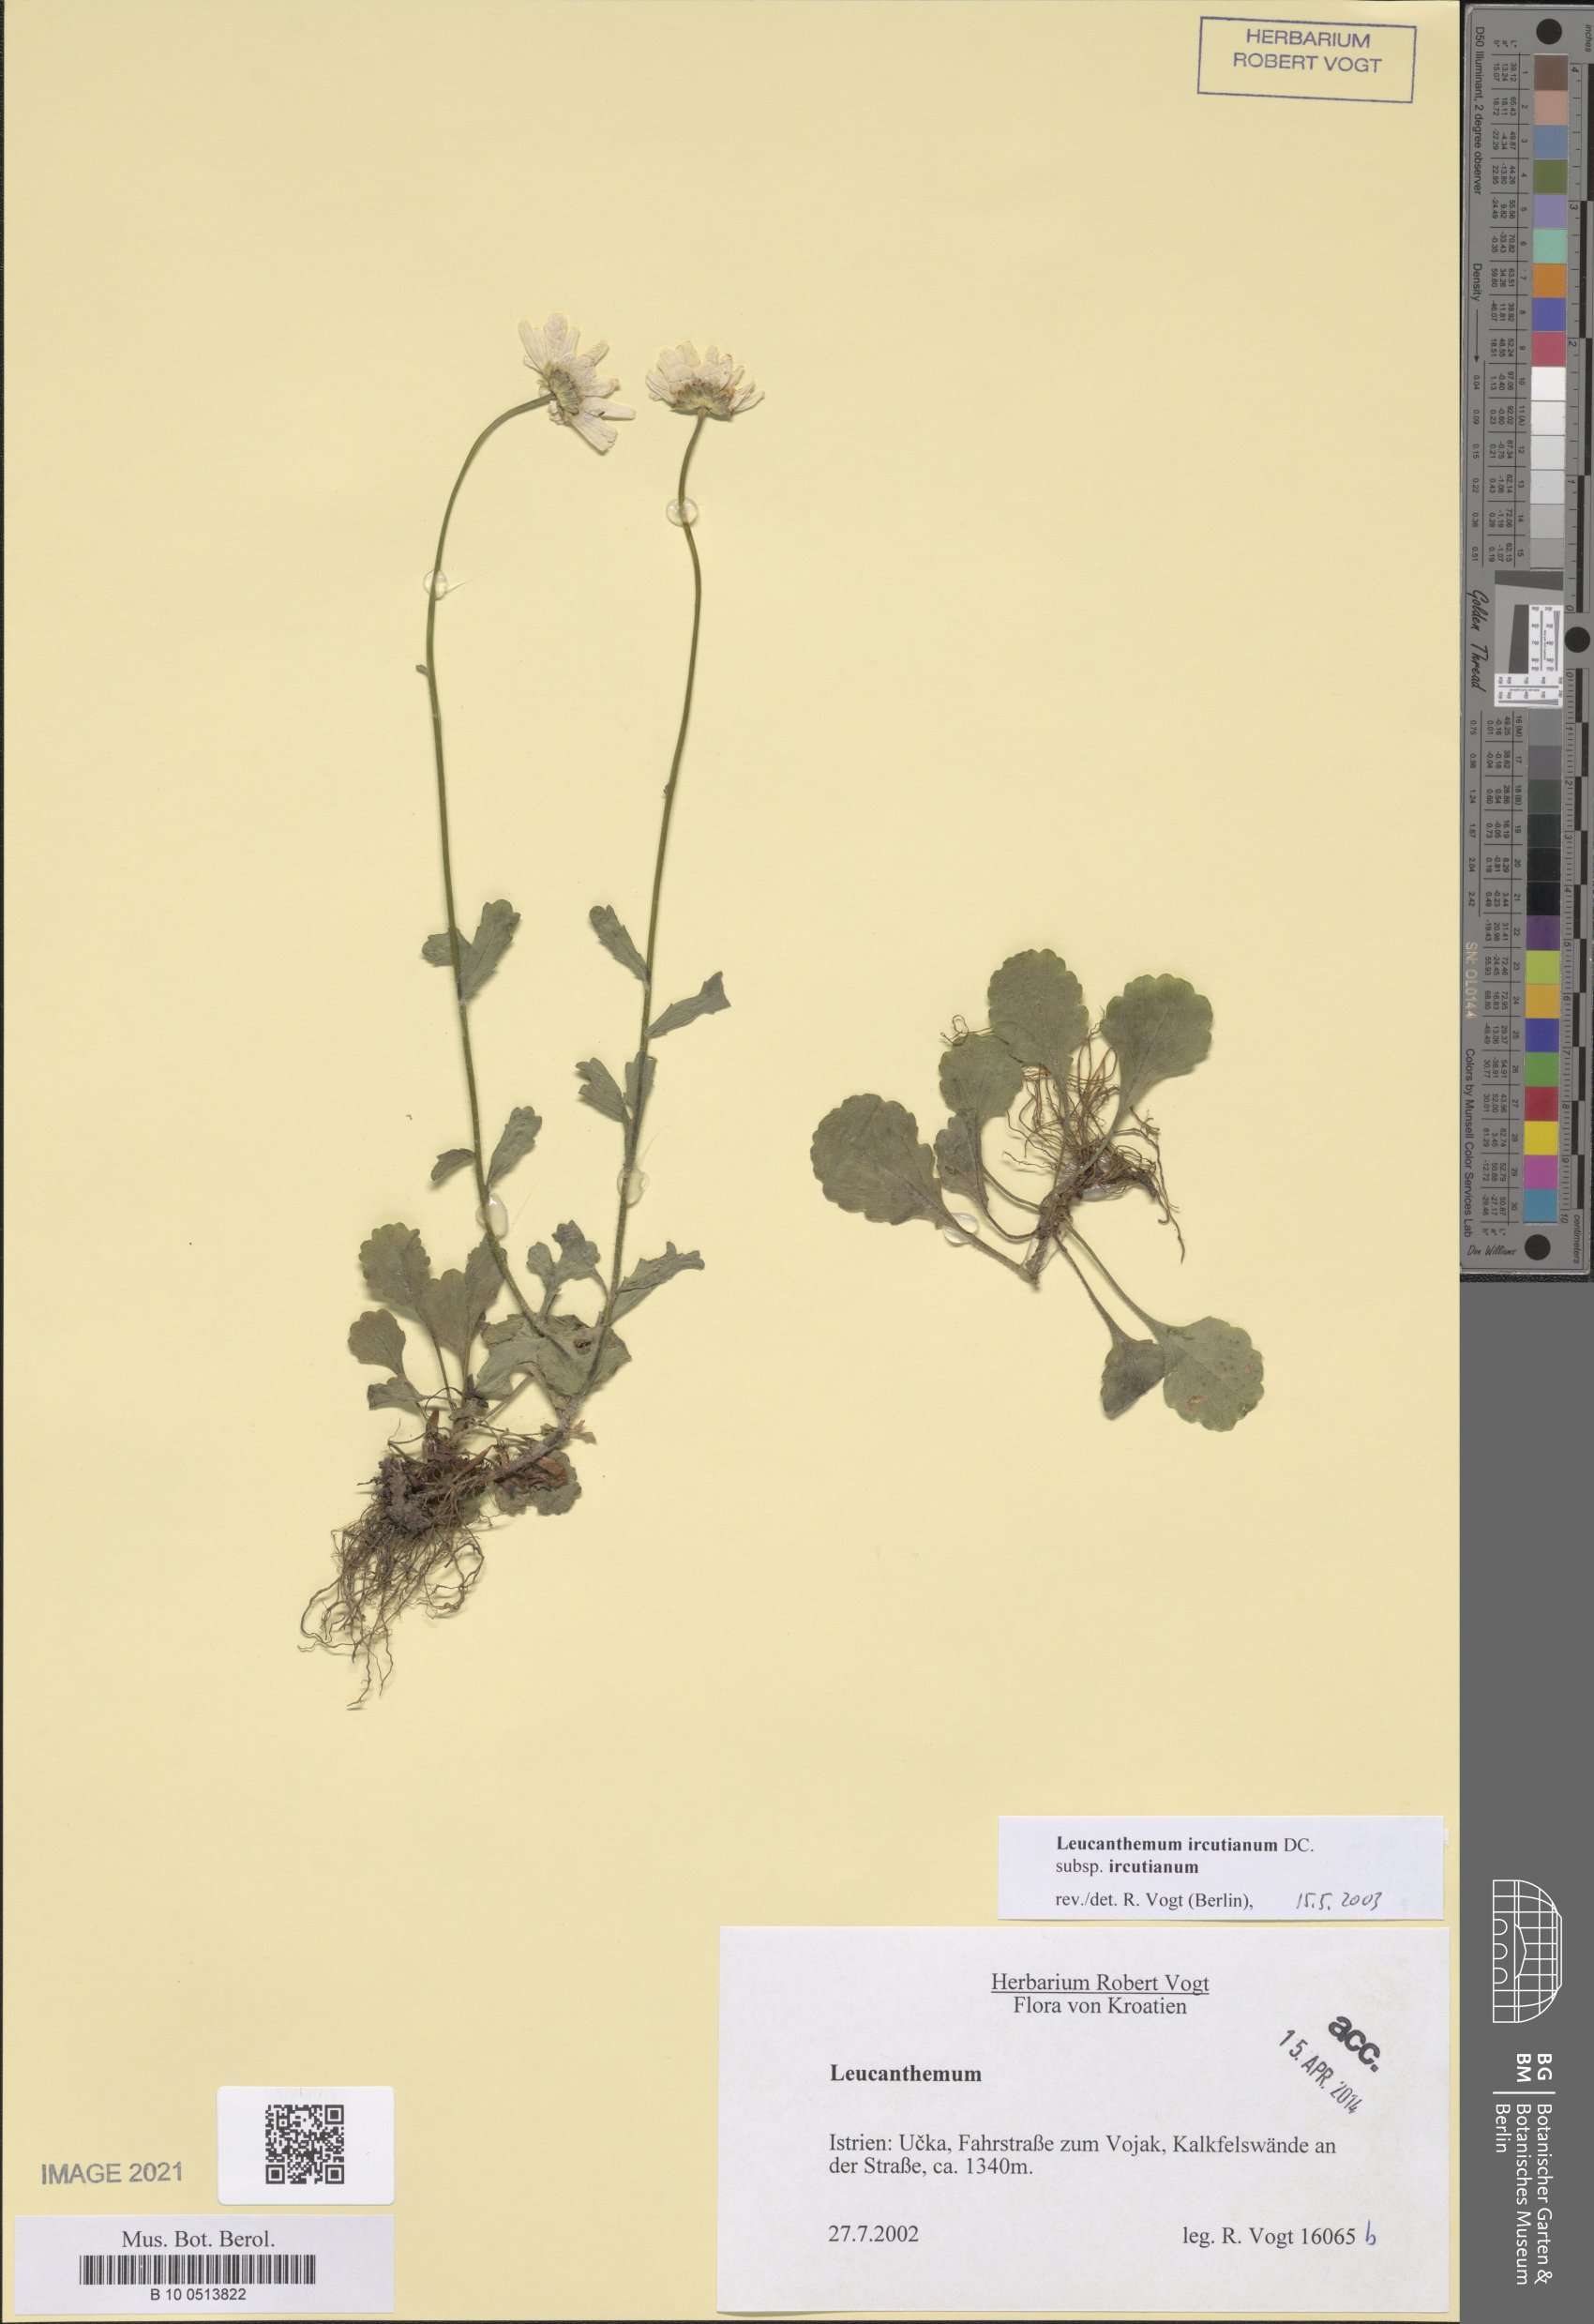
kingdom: Plantae
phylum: Tracheophyta
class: Magnoliopsida
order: Asterales
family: Asteraceae
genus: Leucanthemum
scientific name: Leucanthemum ircutianum
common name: Daisy
